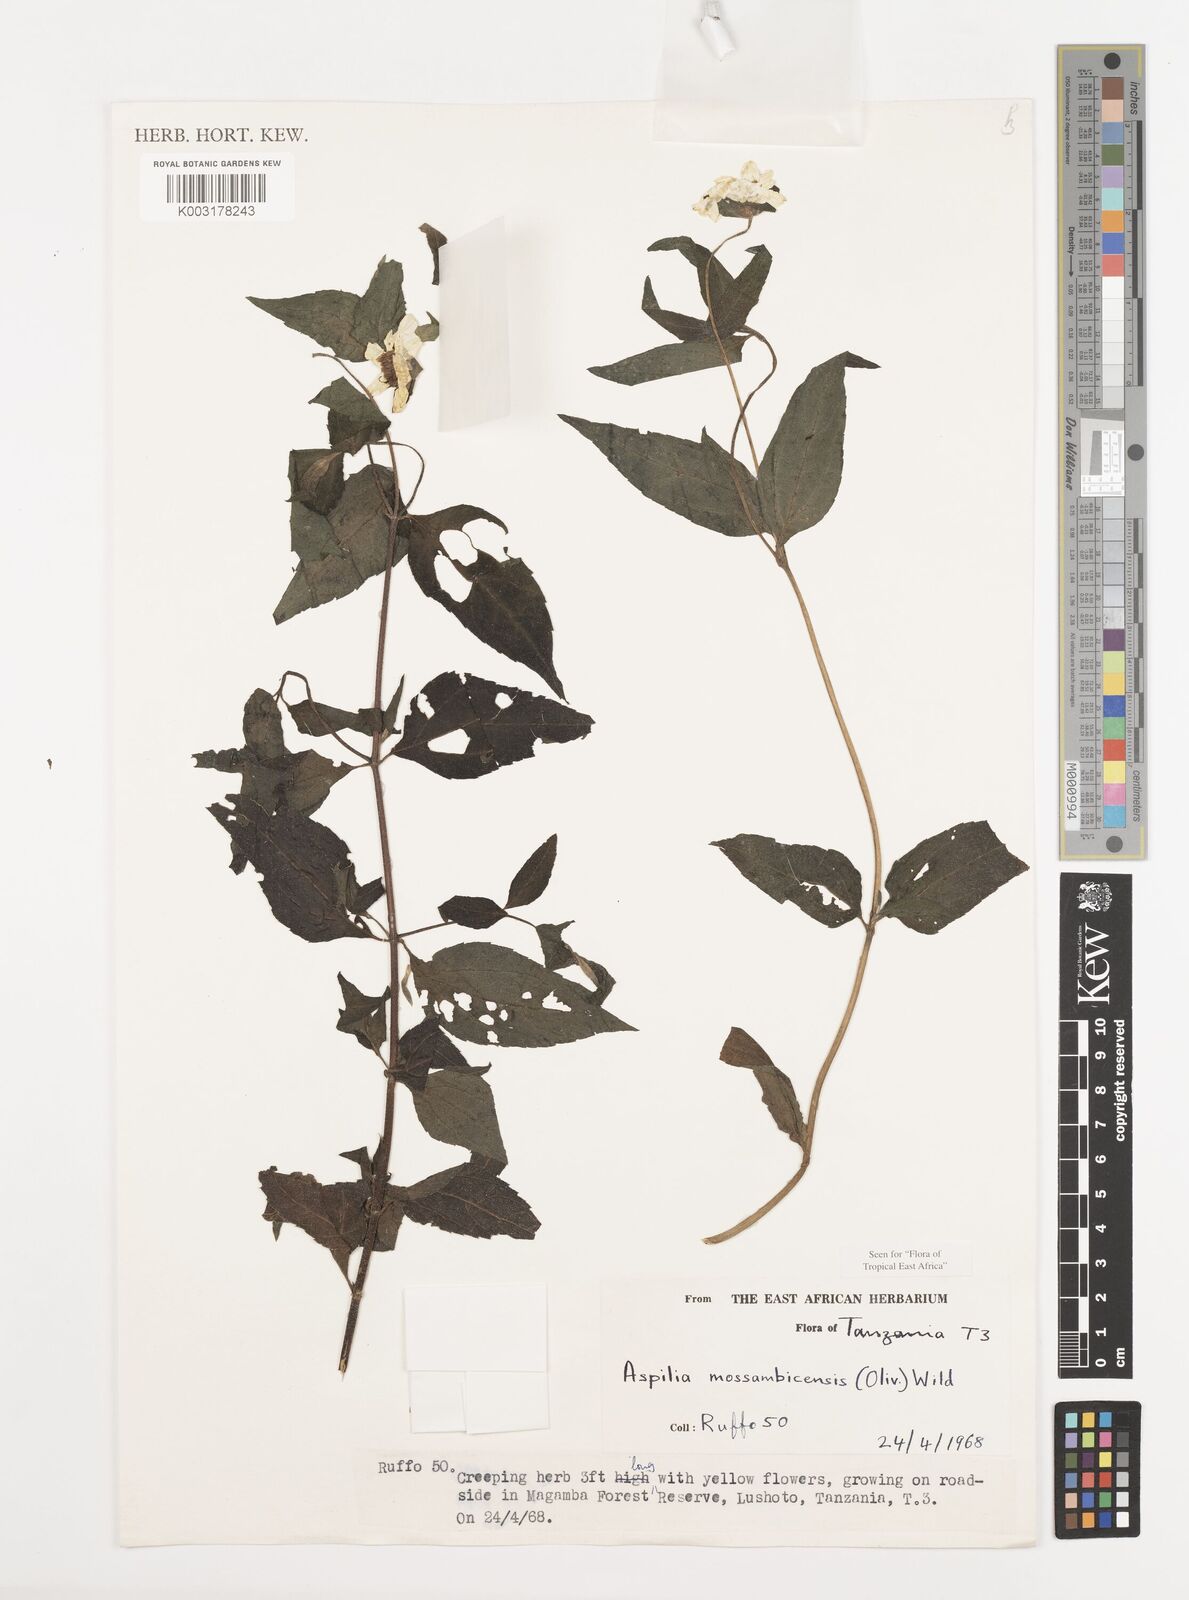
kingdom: Plantae
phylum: Tracheophyta
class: Magnoliopsida
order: Asterales
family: Asteraceae
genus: Aspilia
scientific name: Aspilia mossambicensis
